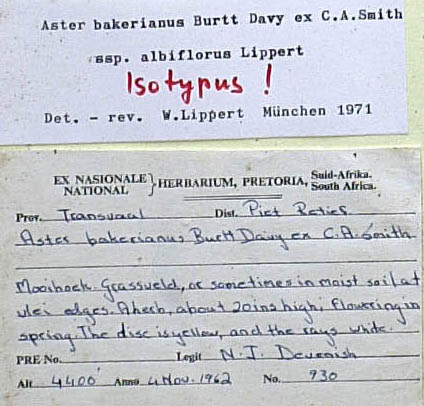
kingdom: Plantae
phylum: Tracheophyta
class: Magnoliopsida
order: Asterales
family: Asteraceae
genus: Afroaster
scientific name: Afroaster hispidus
